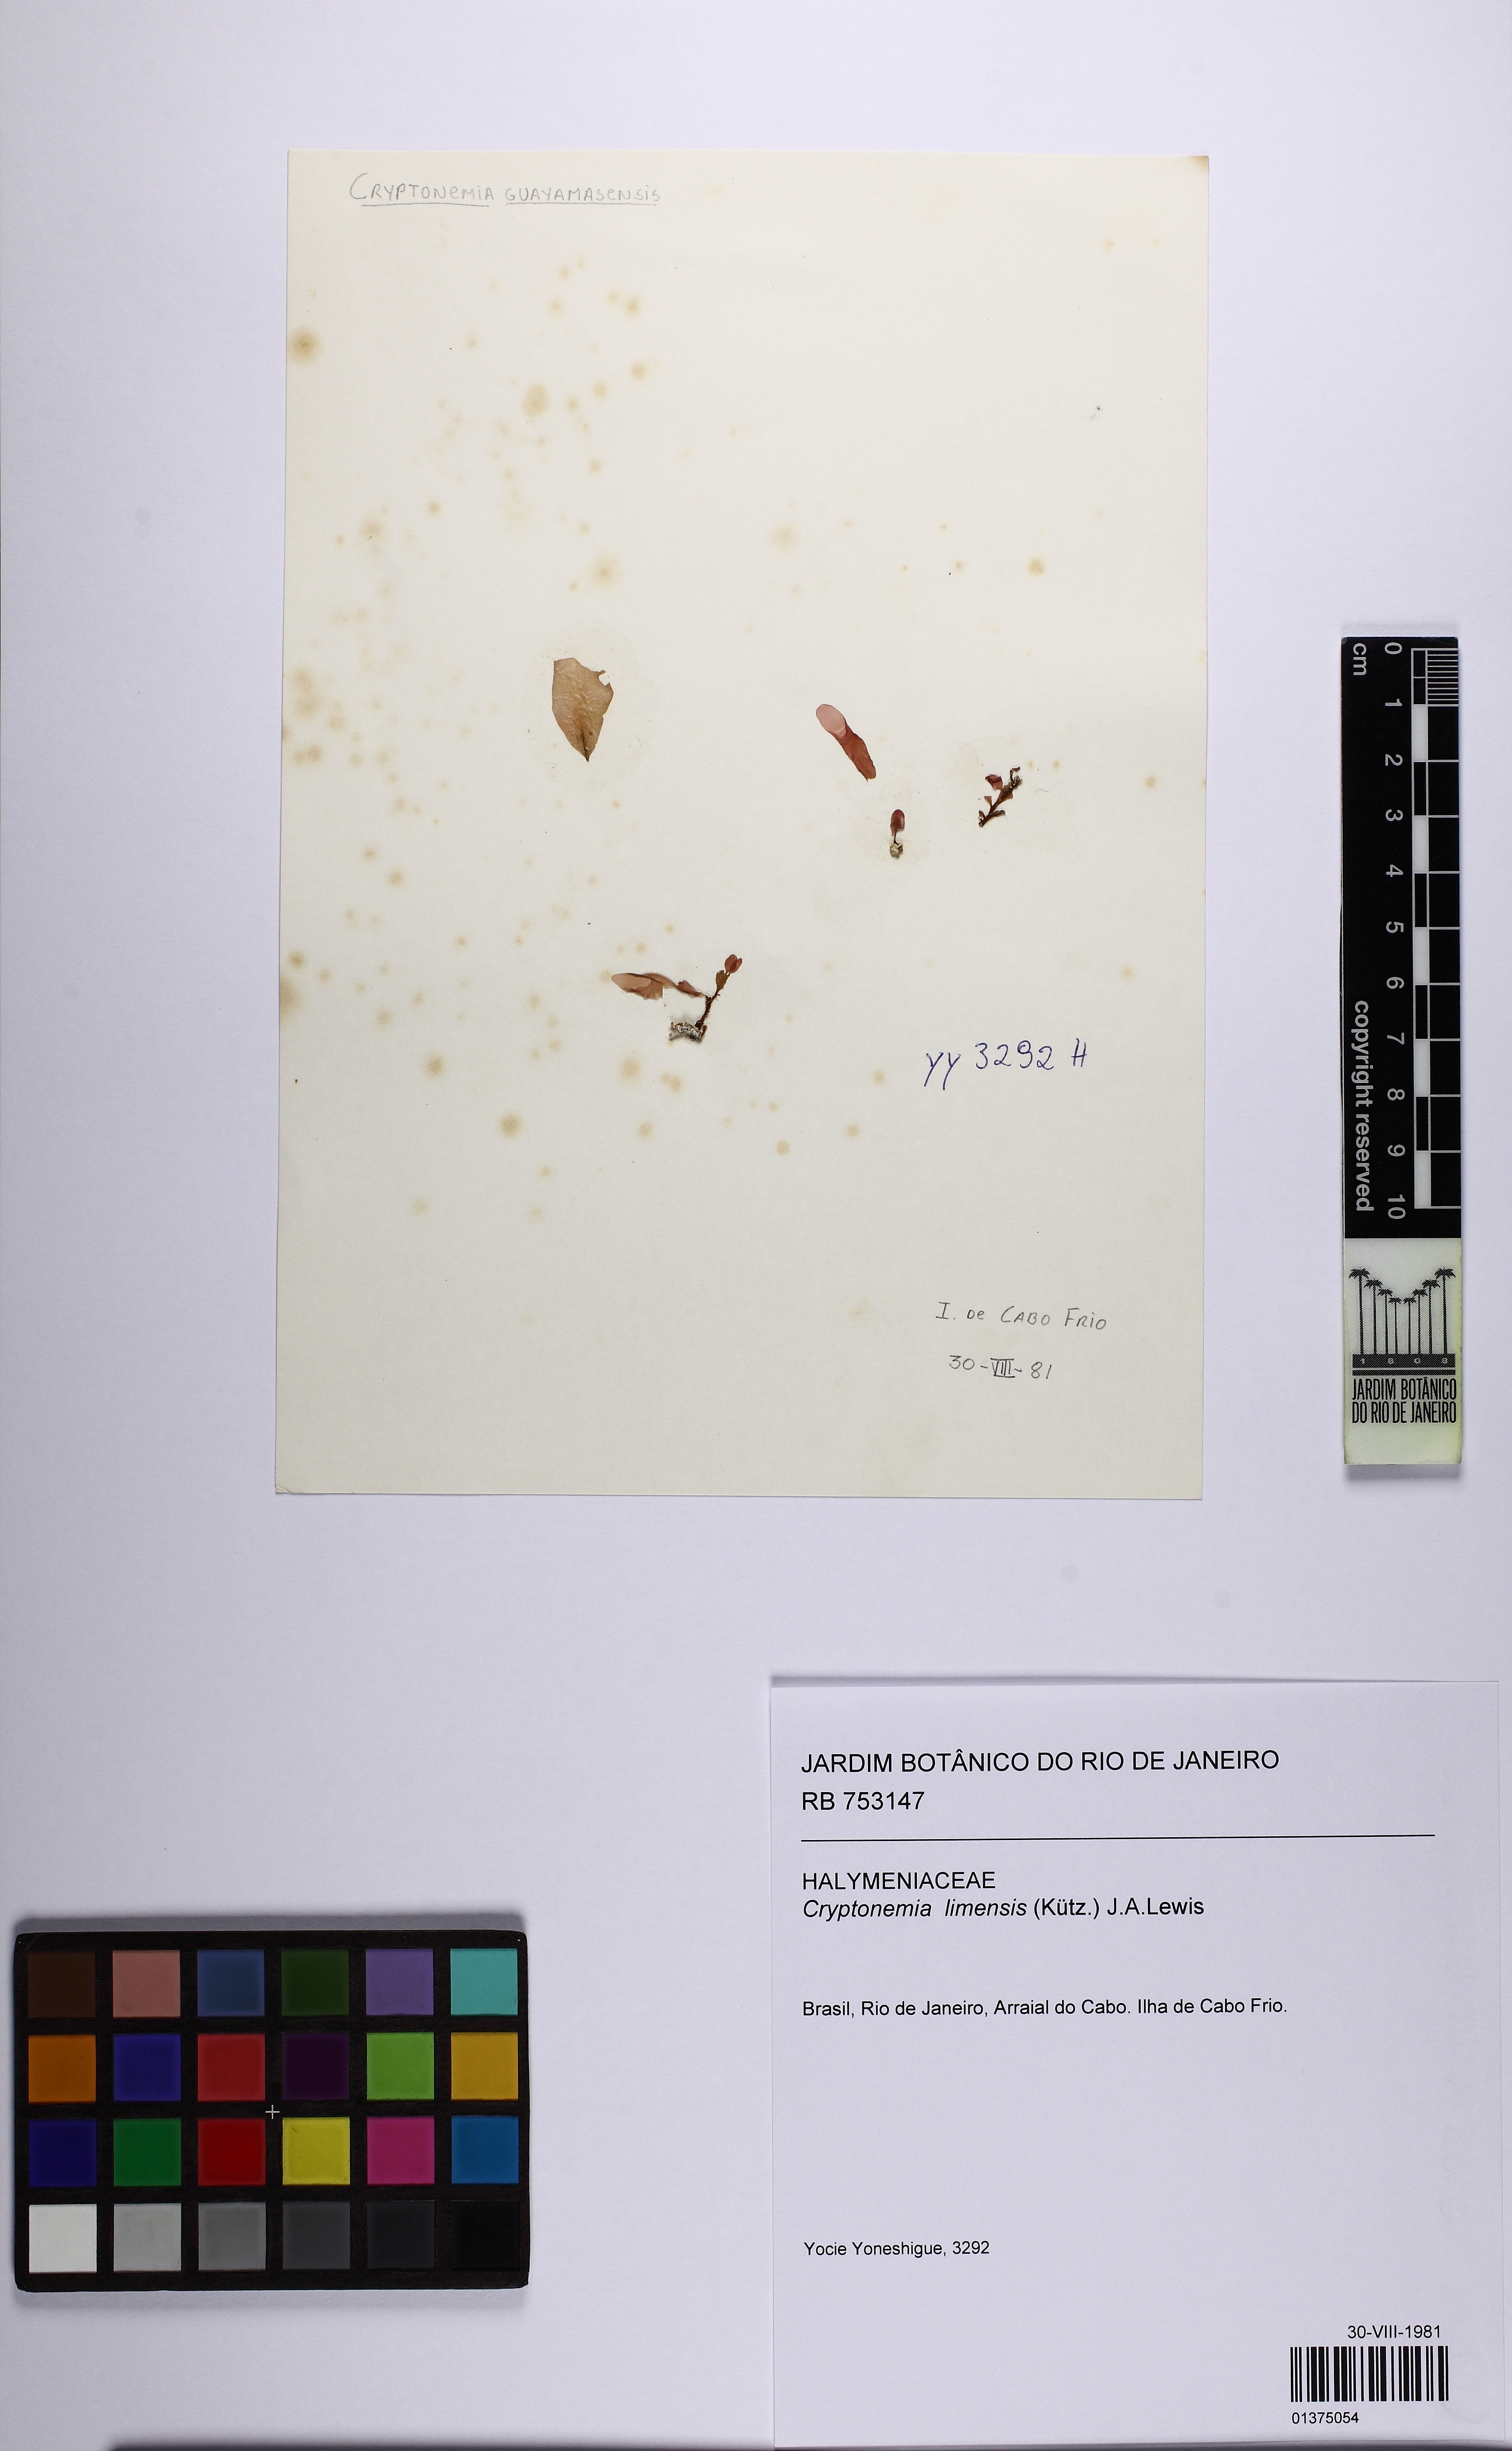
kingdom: Plantae
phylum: Rhodophyta
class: Florideophyceae
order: Halymeniales
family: Halymeniaceae
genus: Cryptonemia
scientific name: Cryptonemia limensis
